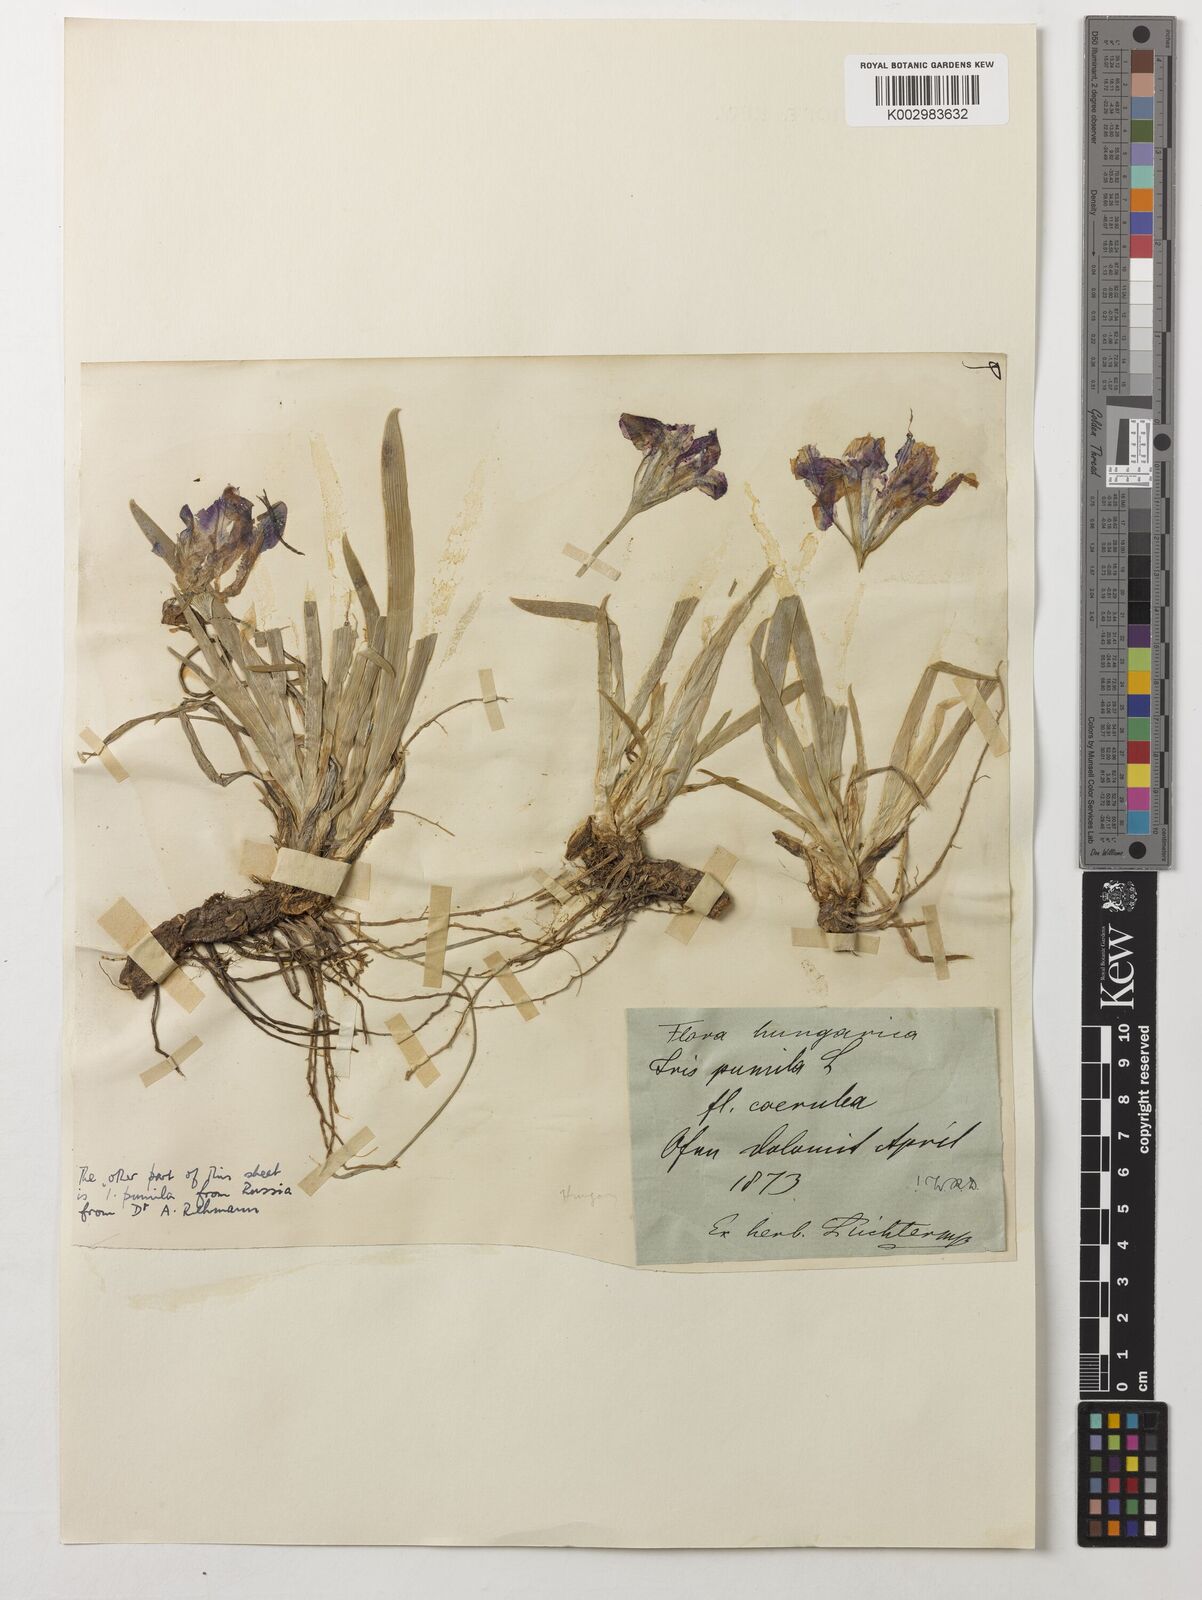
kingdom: Plantae
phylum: Tracheophyta
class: Liliopsida
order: Asparagales
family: Iridaceae
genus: Iris
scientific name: Iris pumila
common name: Dwarf iris
